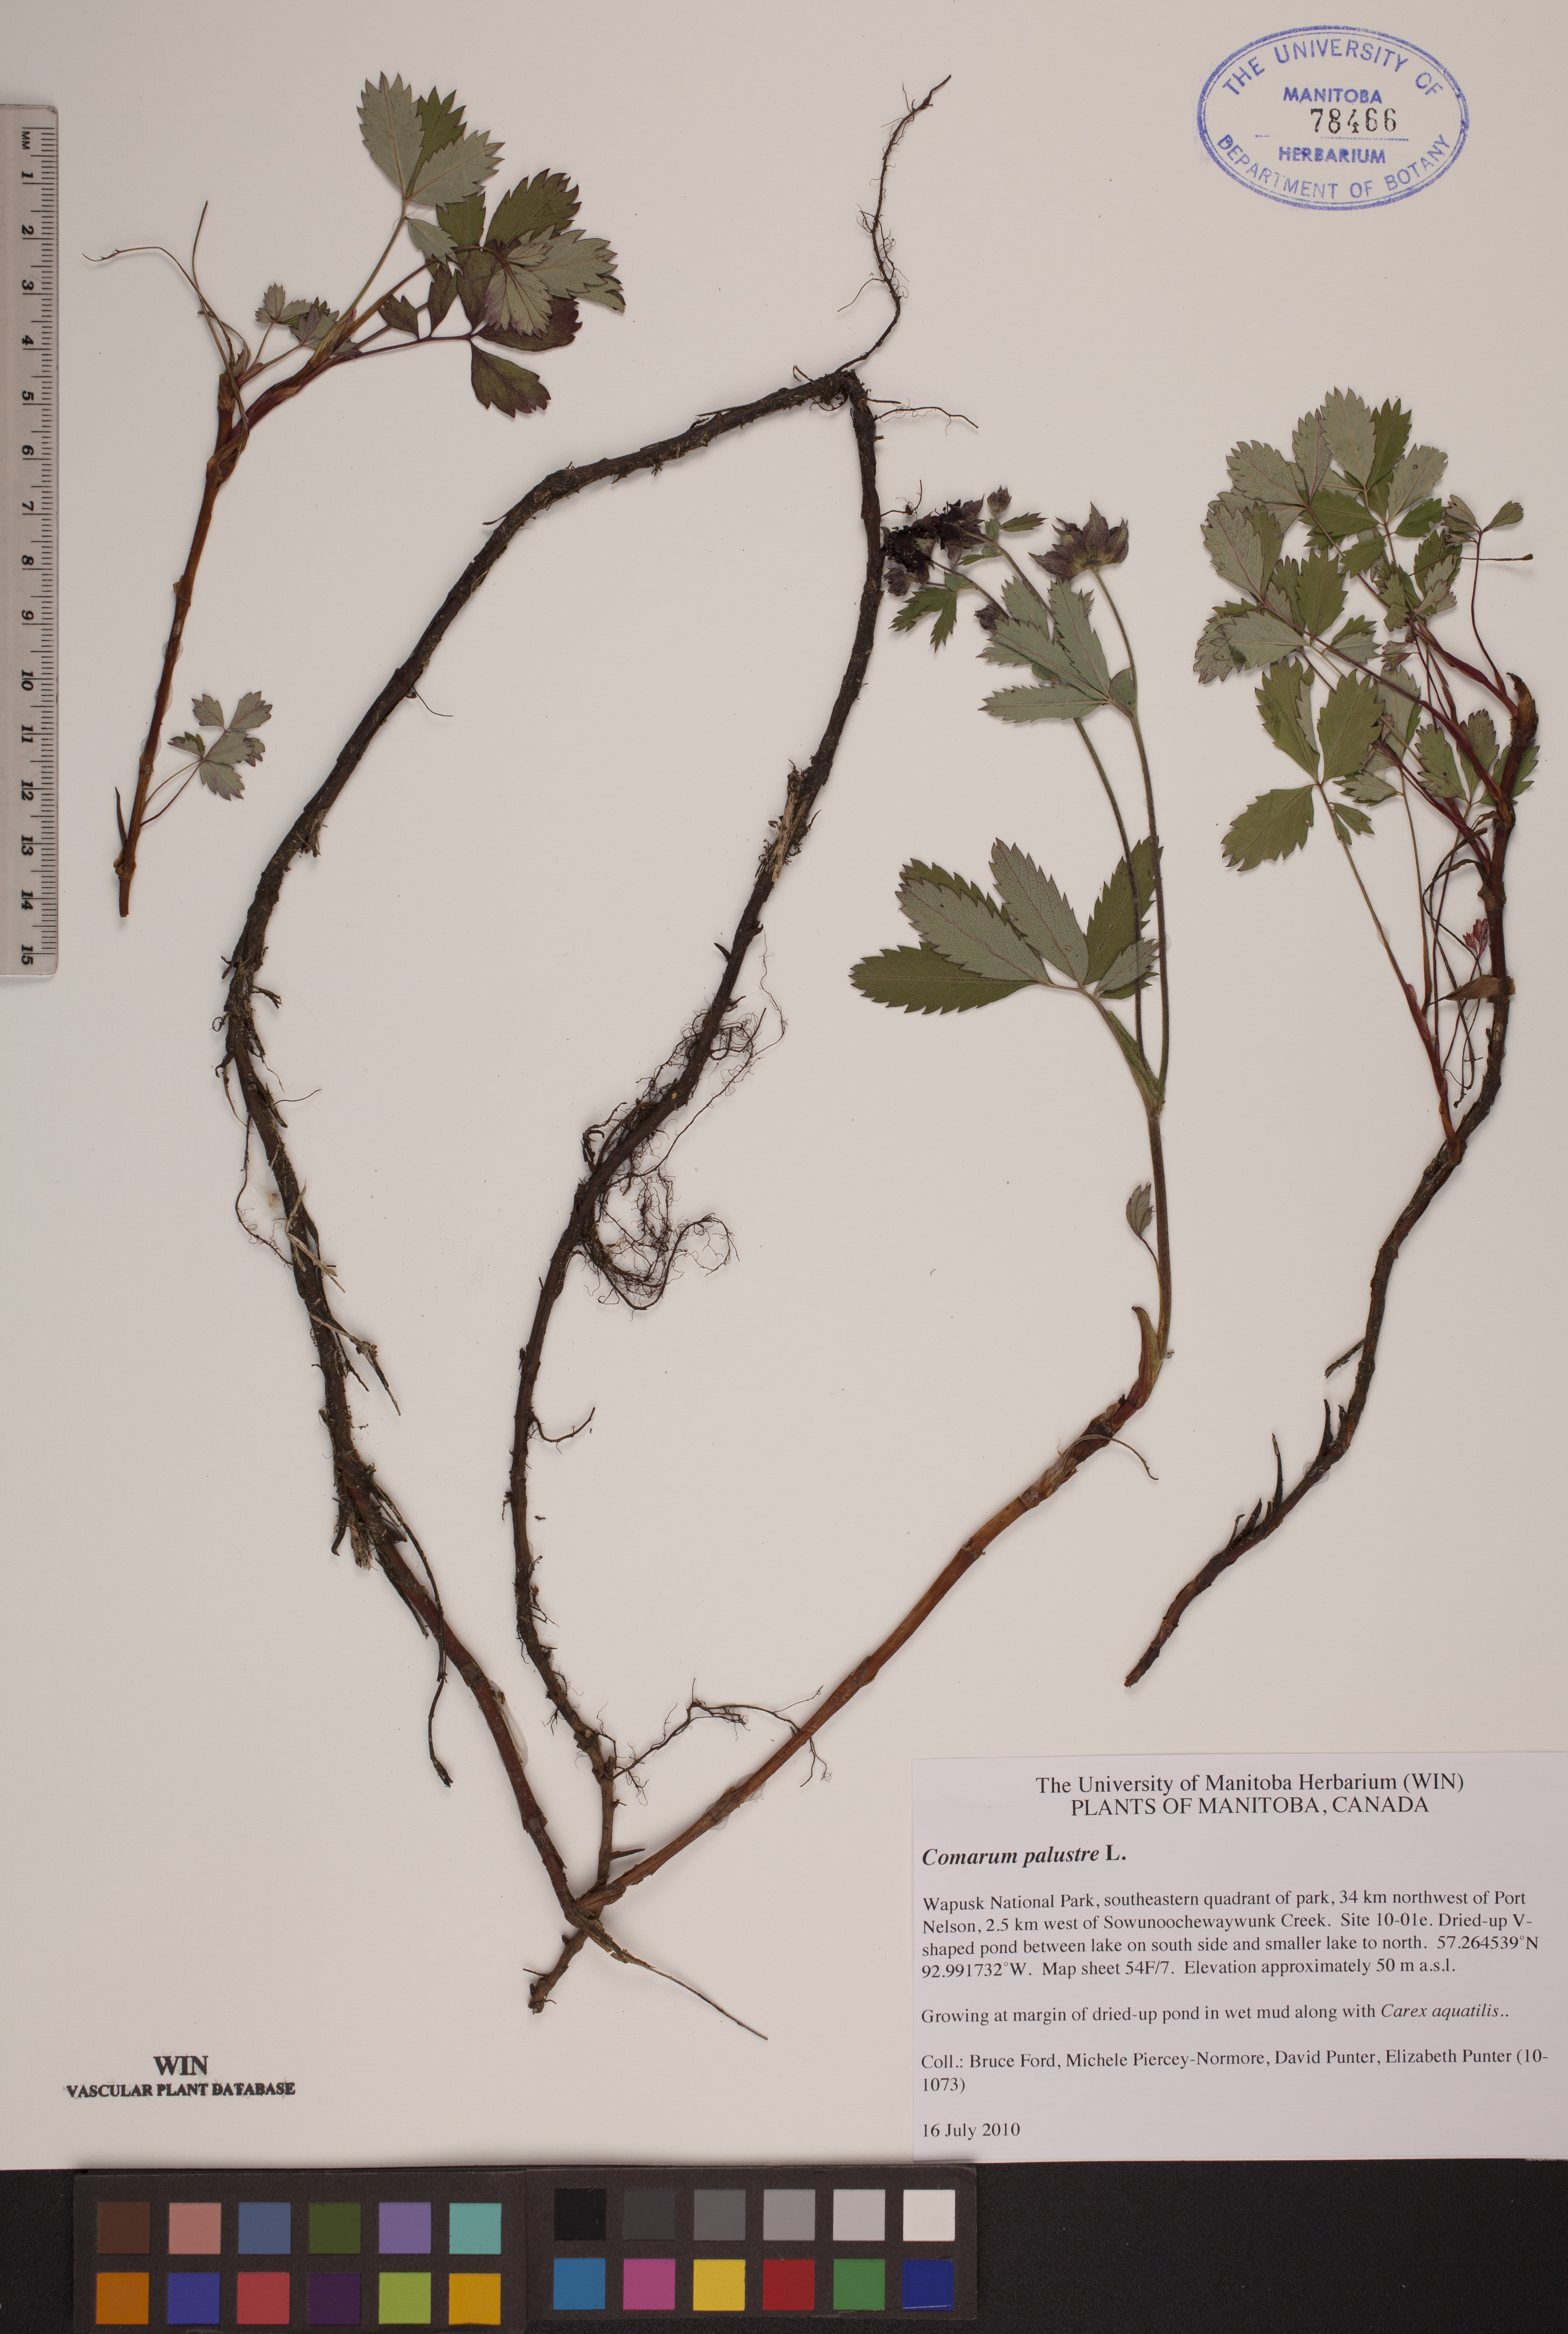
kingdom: Plantae
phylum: Tracheophyta
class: Magnoliopsida
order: Rosales
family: Rosaceae
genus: Comarum
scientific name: Comarum palustre
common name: Marsh cinquefoil
